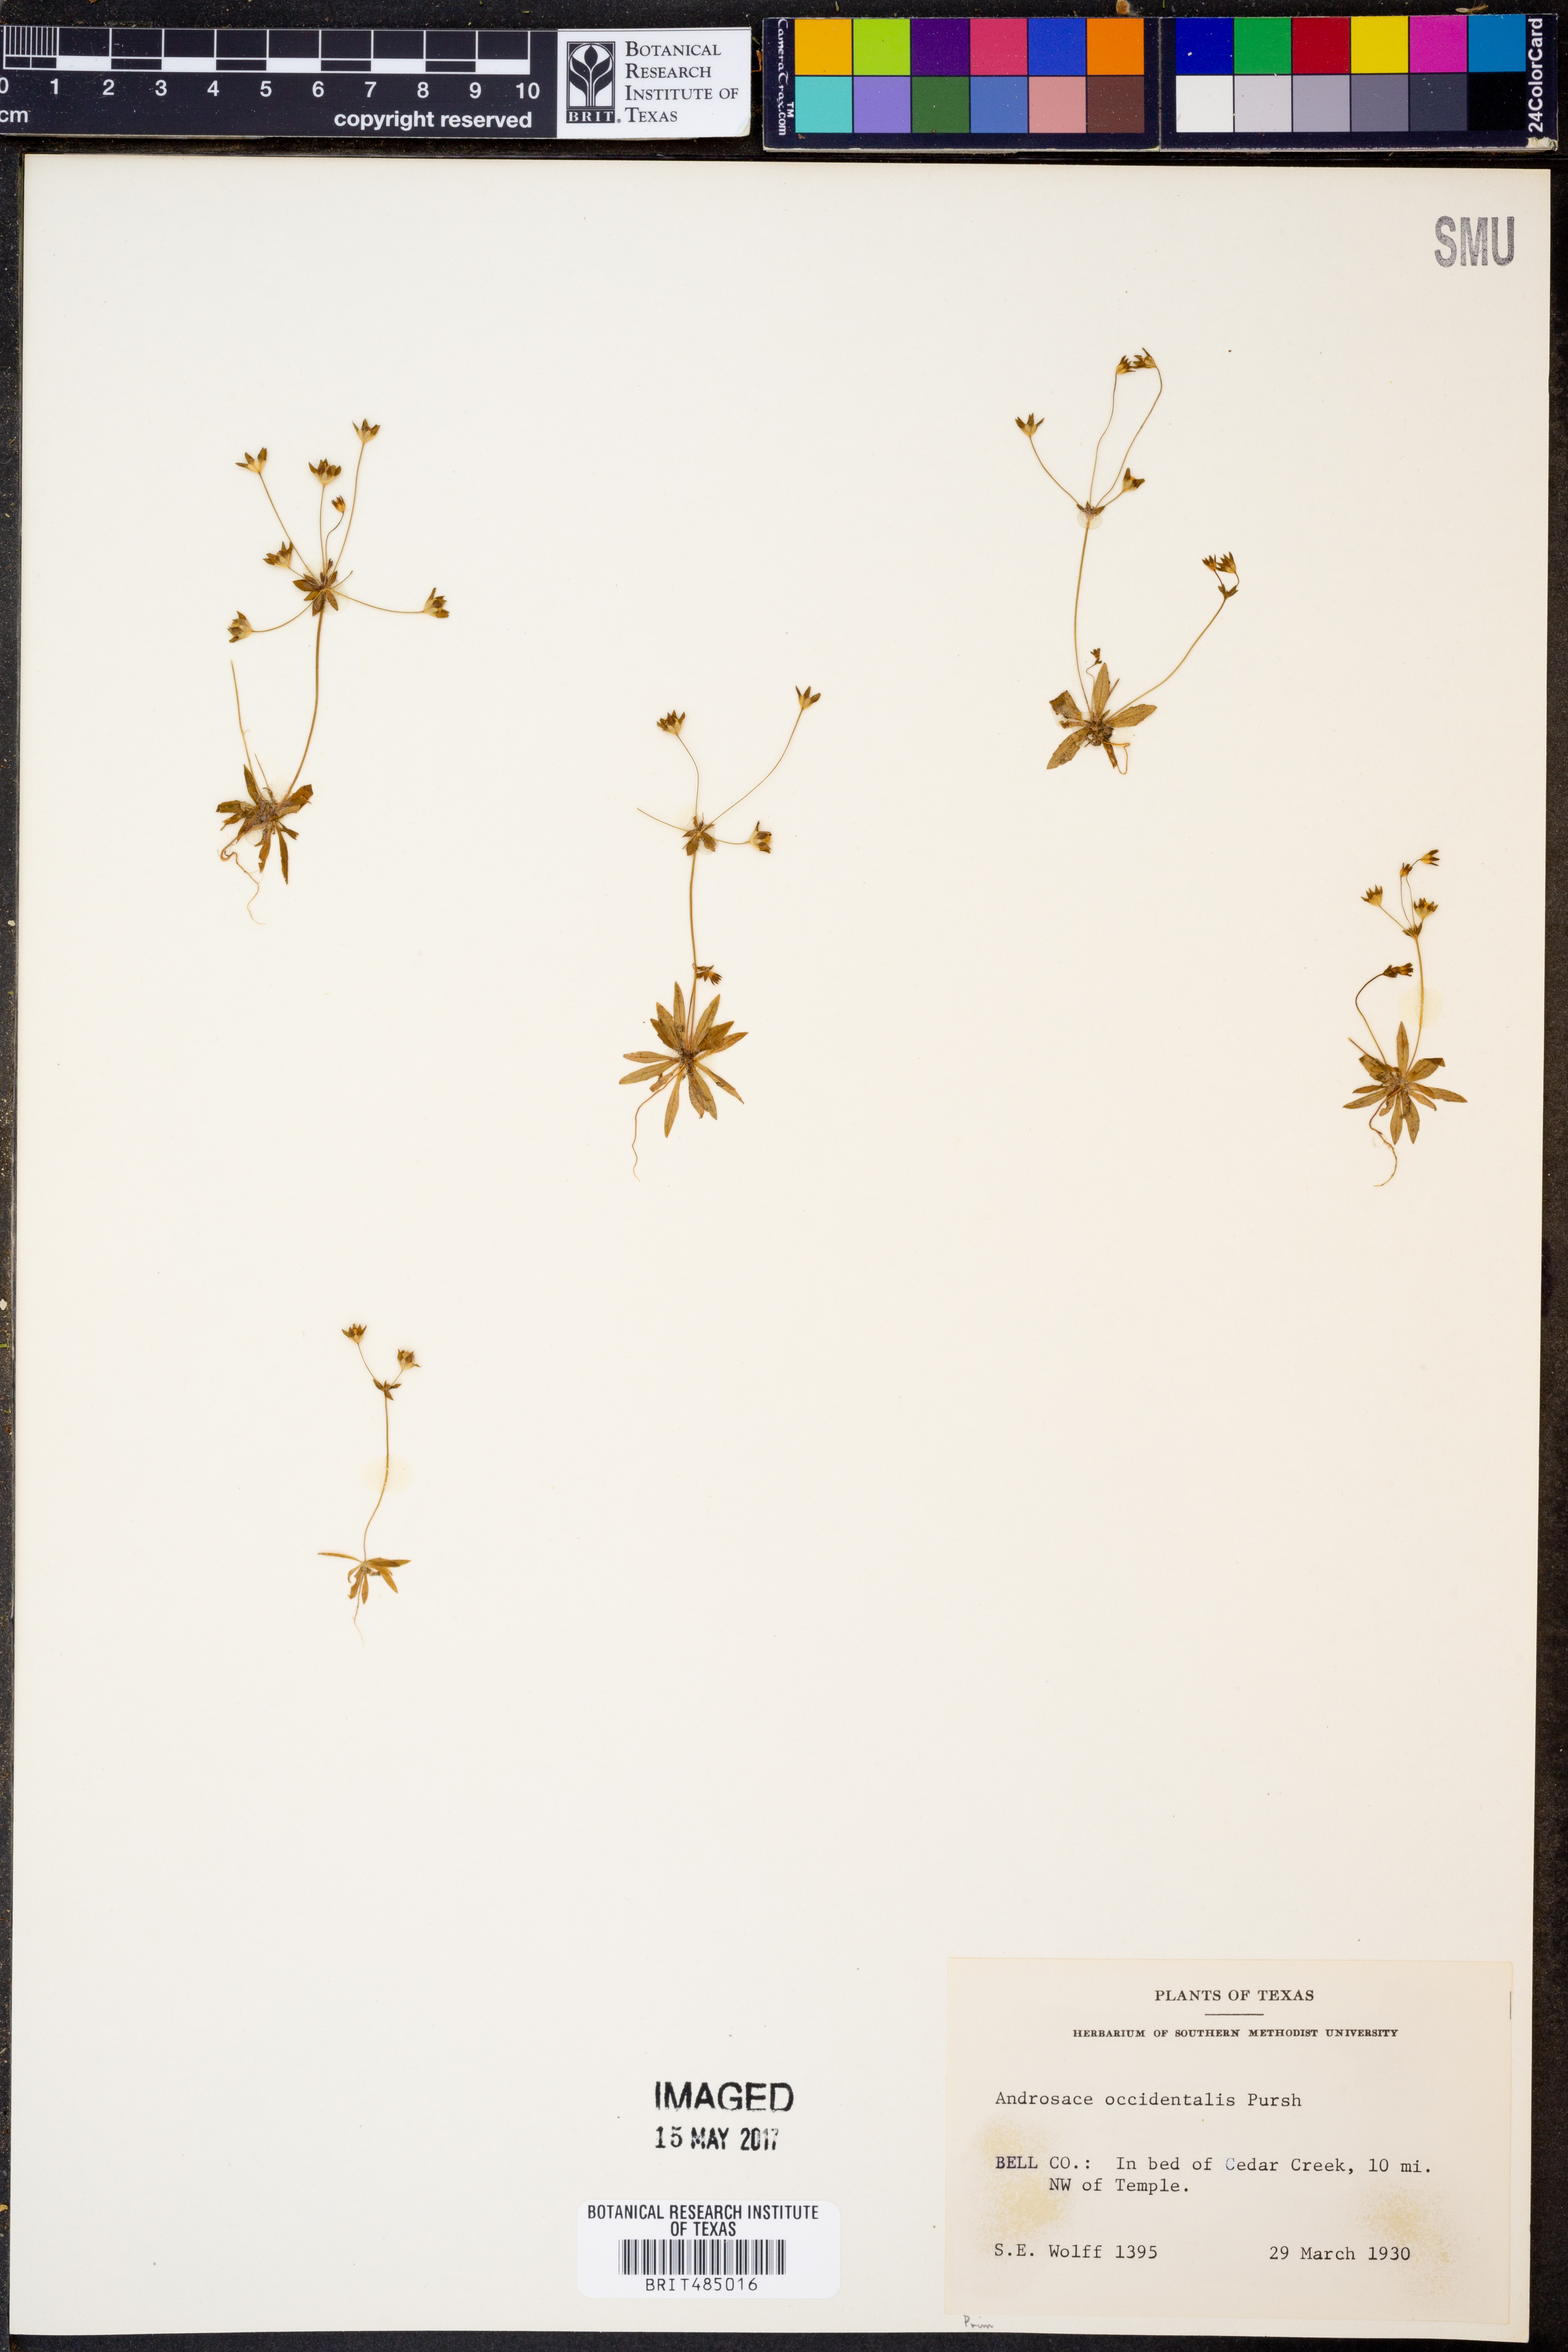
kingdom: Plantae
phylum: Tracheophyta
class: Magnoliopsida
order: Ericales
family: Primulaceae
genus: Androsace
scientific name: Androsace occidentalis
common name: West rock-jasmine
